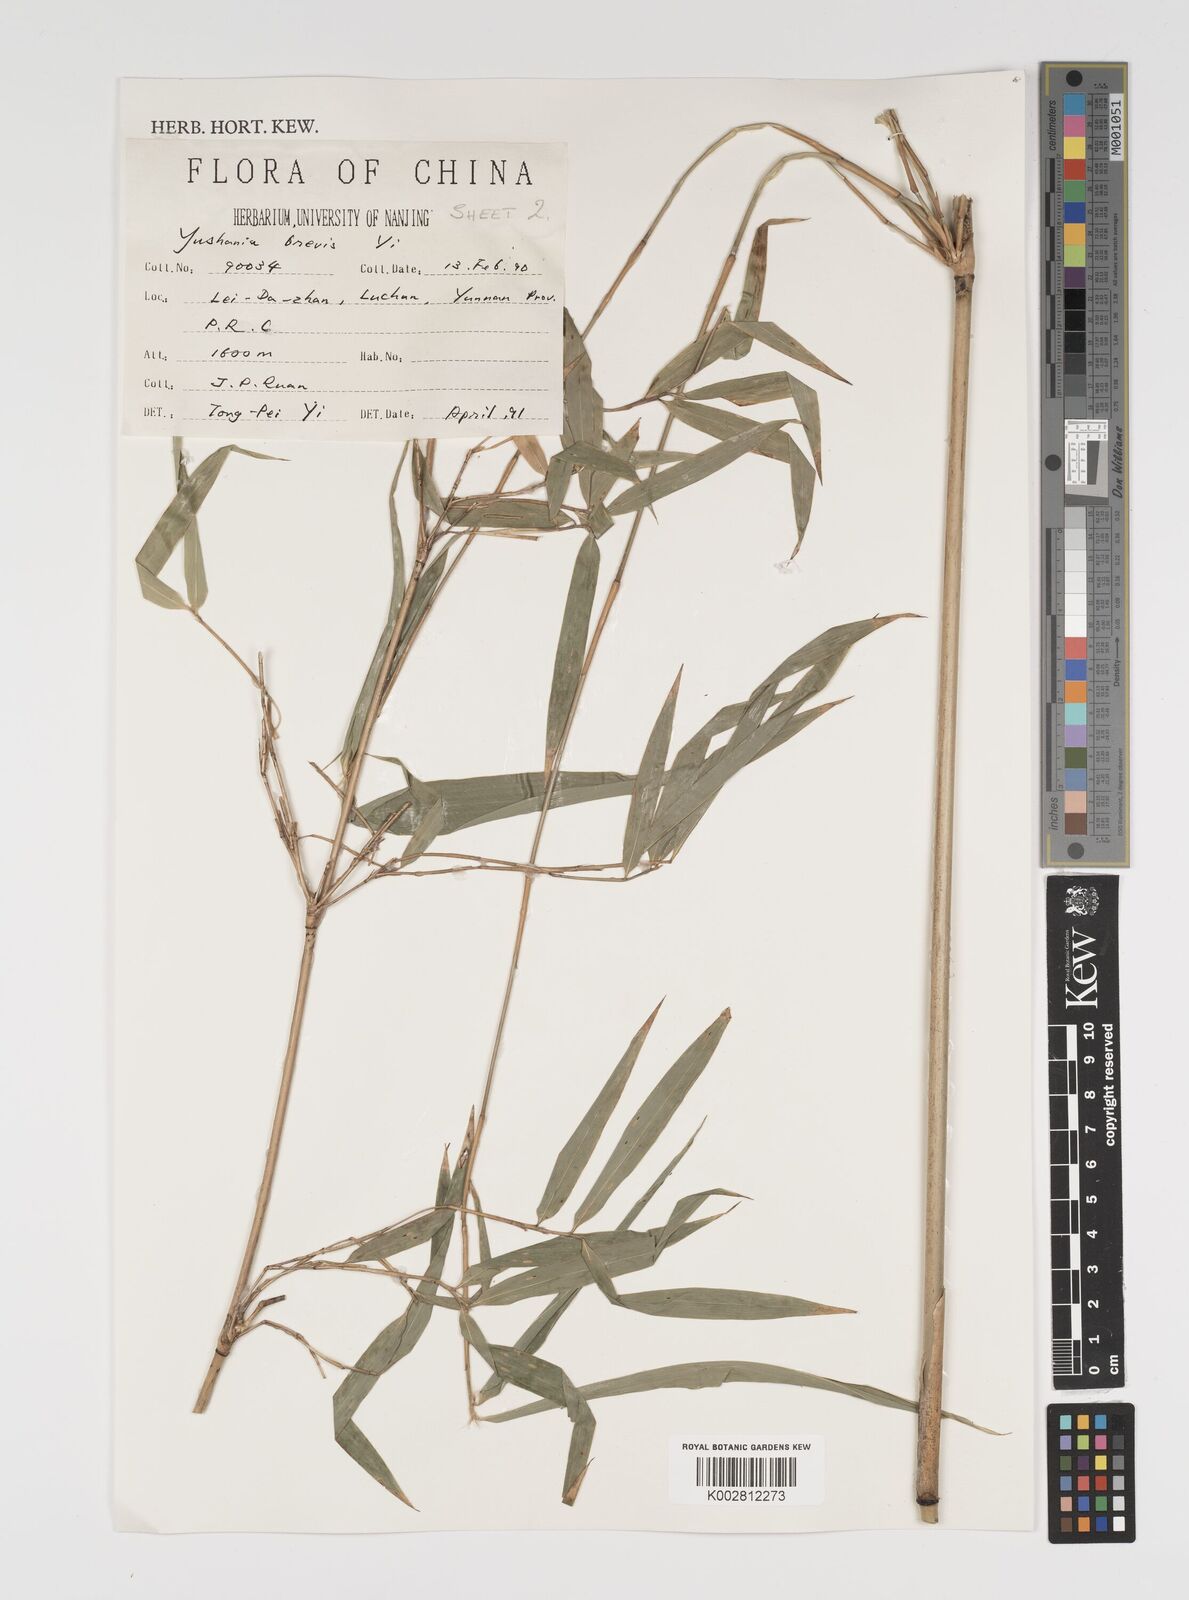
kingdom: Plantae
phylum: Tracheophyta
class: Liliopsida
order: Poales
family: Poaceae
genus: Yushania
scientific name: Yushania brevis
